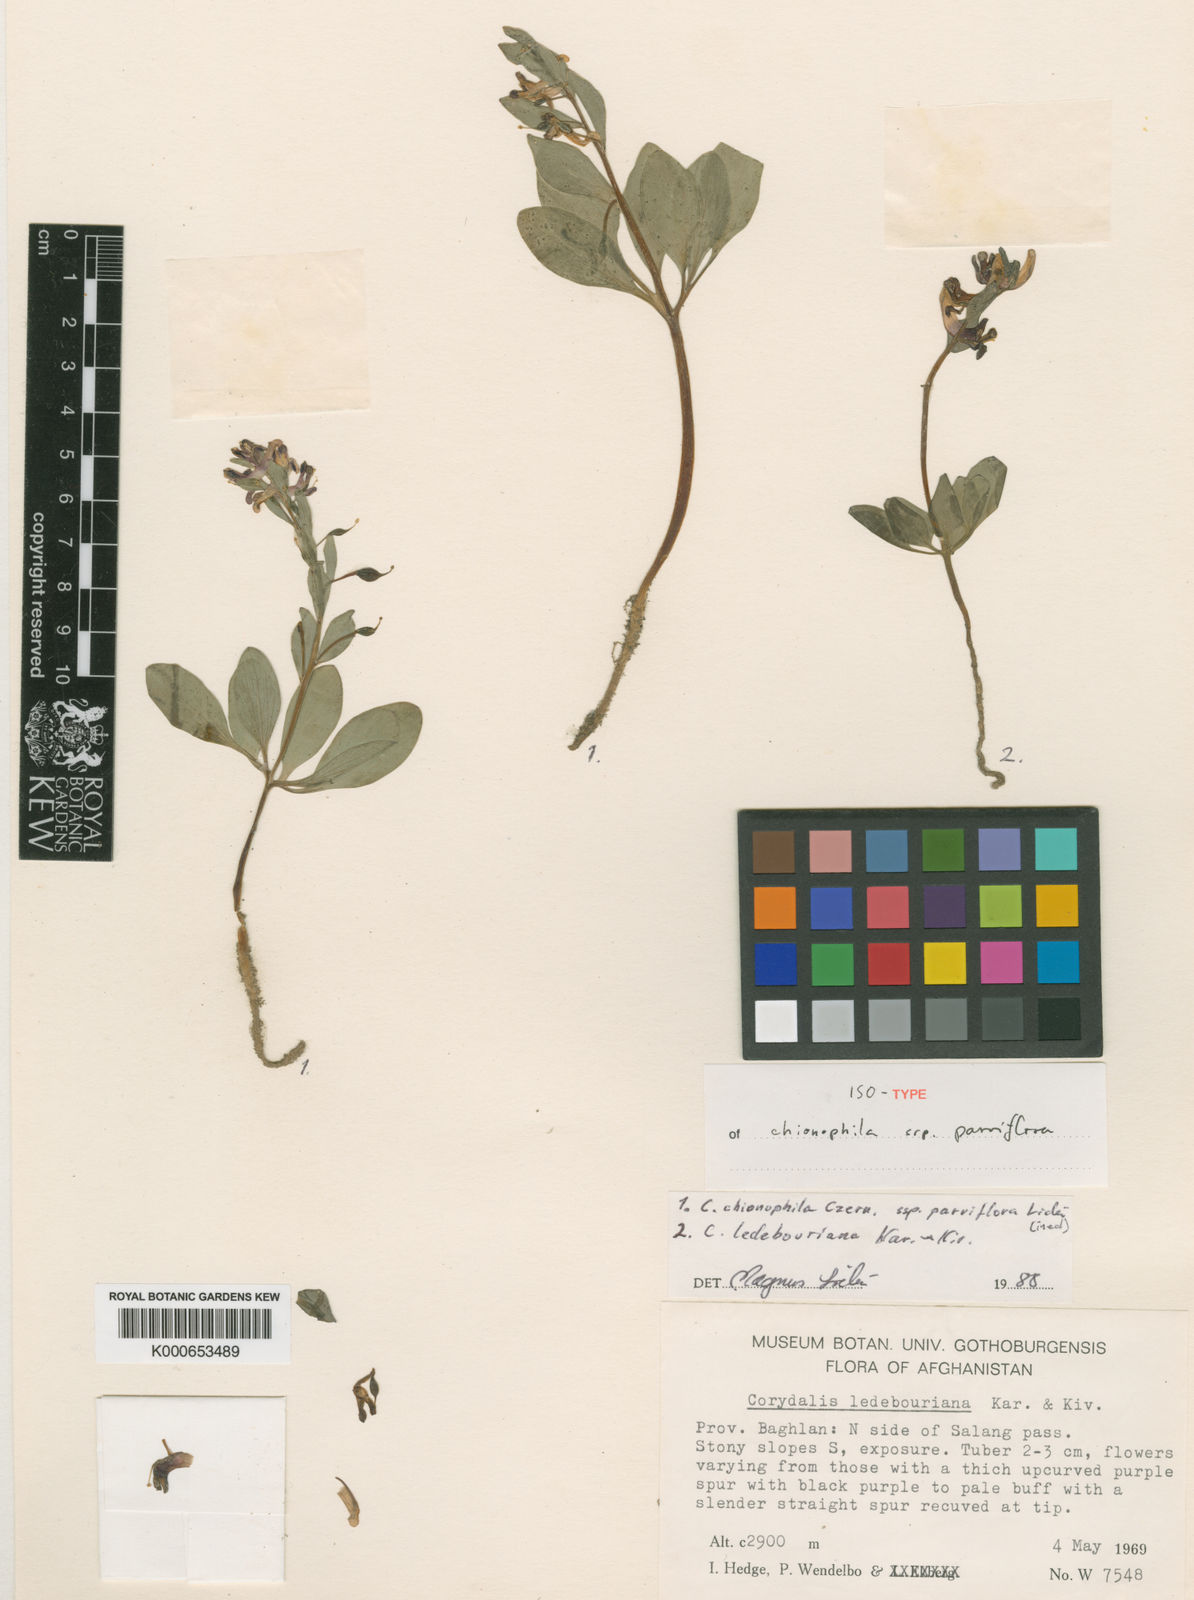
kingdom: Plantae
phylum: Tracheophyta
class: Magnoliopsida
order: Ranunculales
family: Papaveraceae
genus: Corydalis
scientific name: Corydalis chionophila
